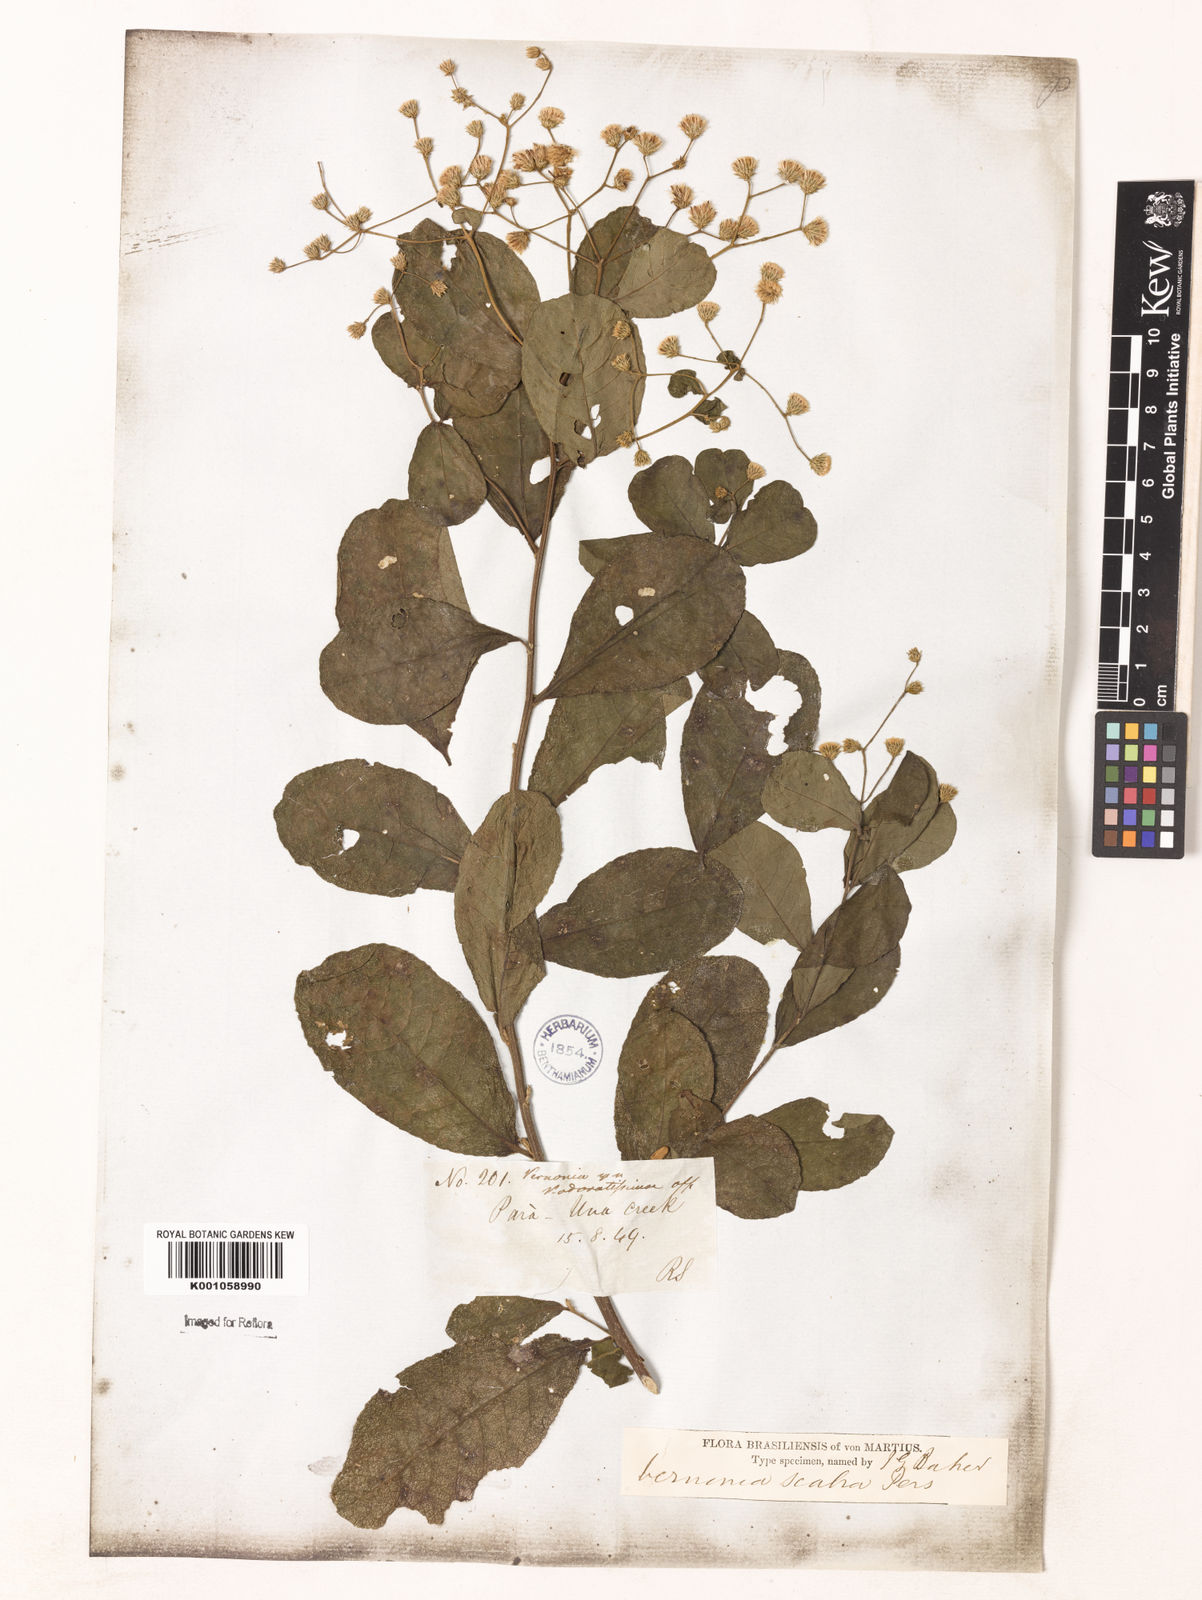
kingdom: Plantae
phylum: Tracheophyta
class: Magnoliopsida
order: Asterales
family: Asteraceae
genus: Vernonanthura
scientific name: Vernonanthura brasiliana
